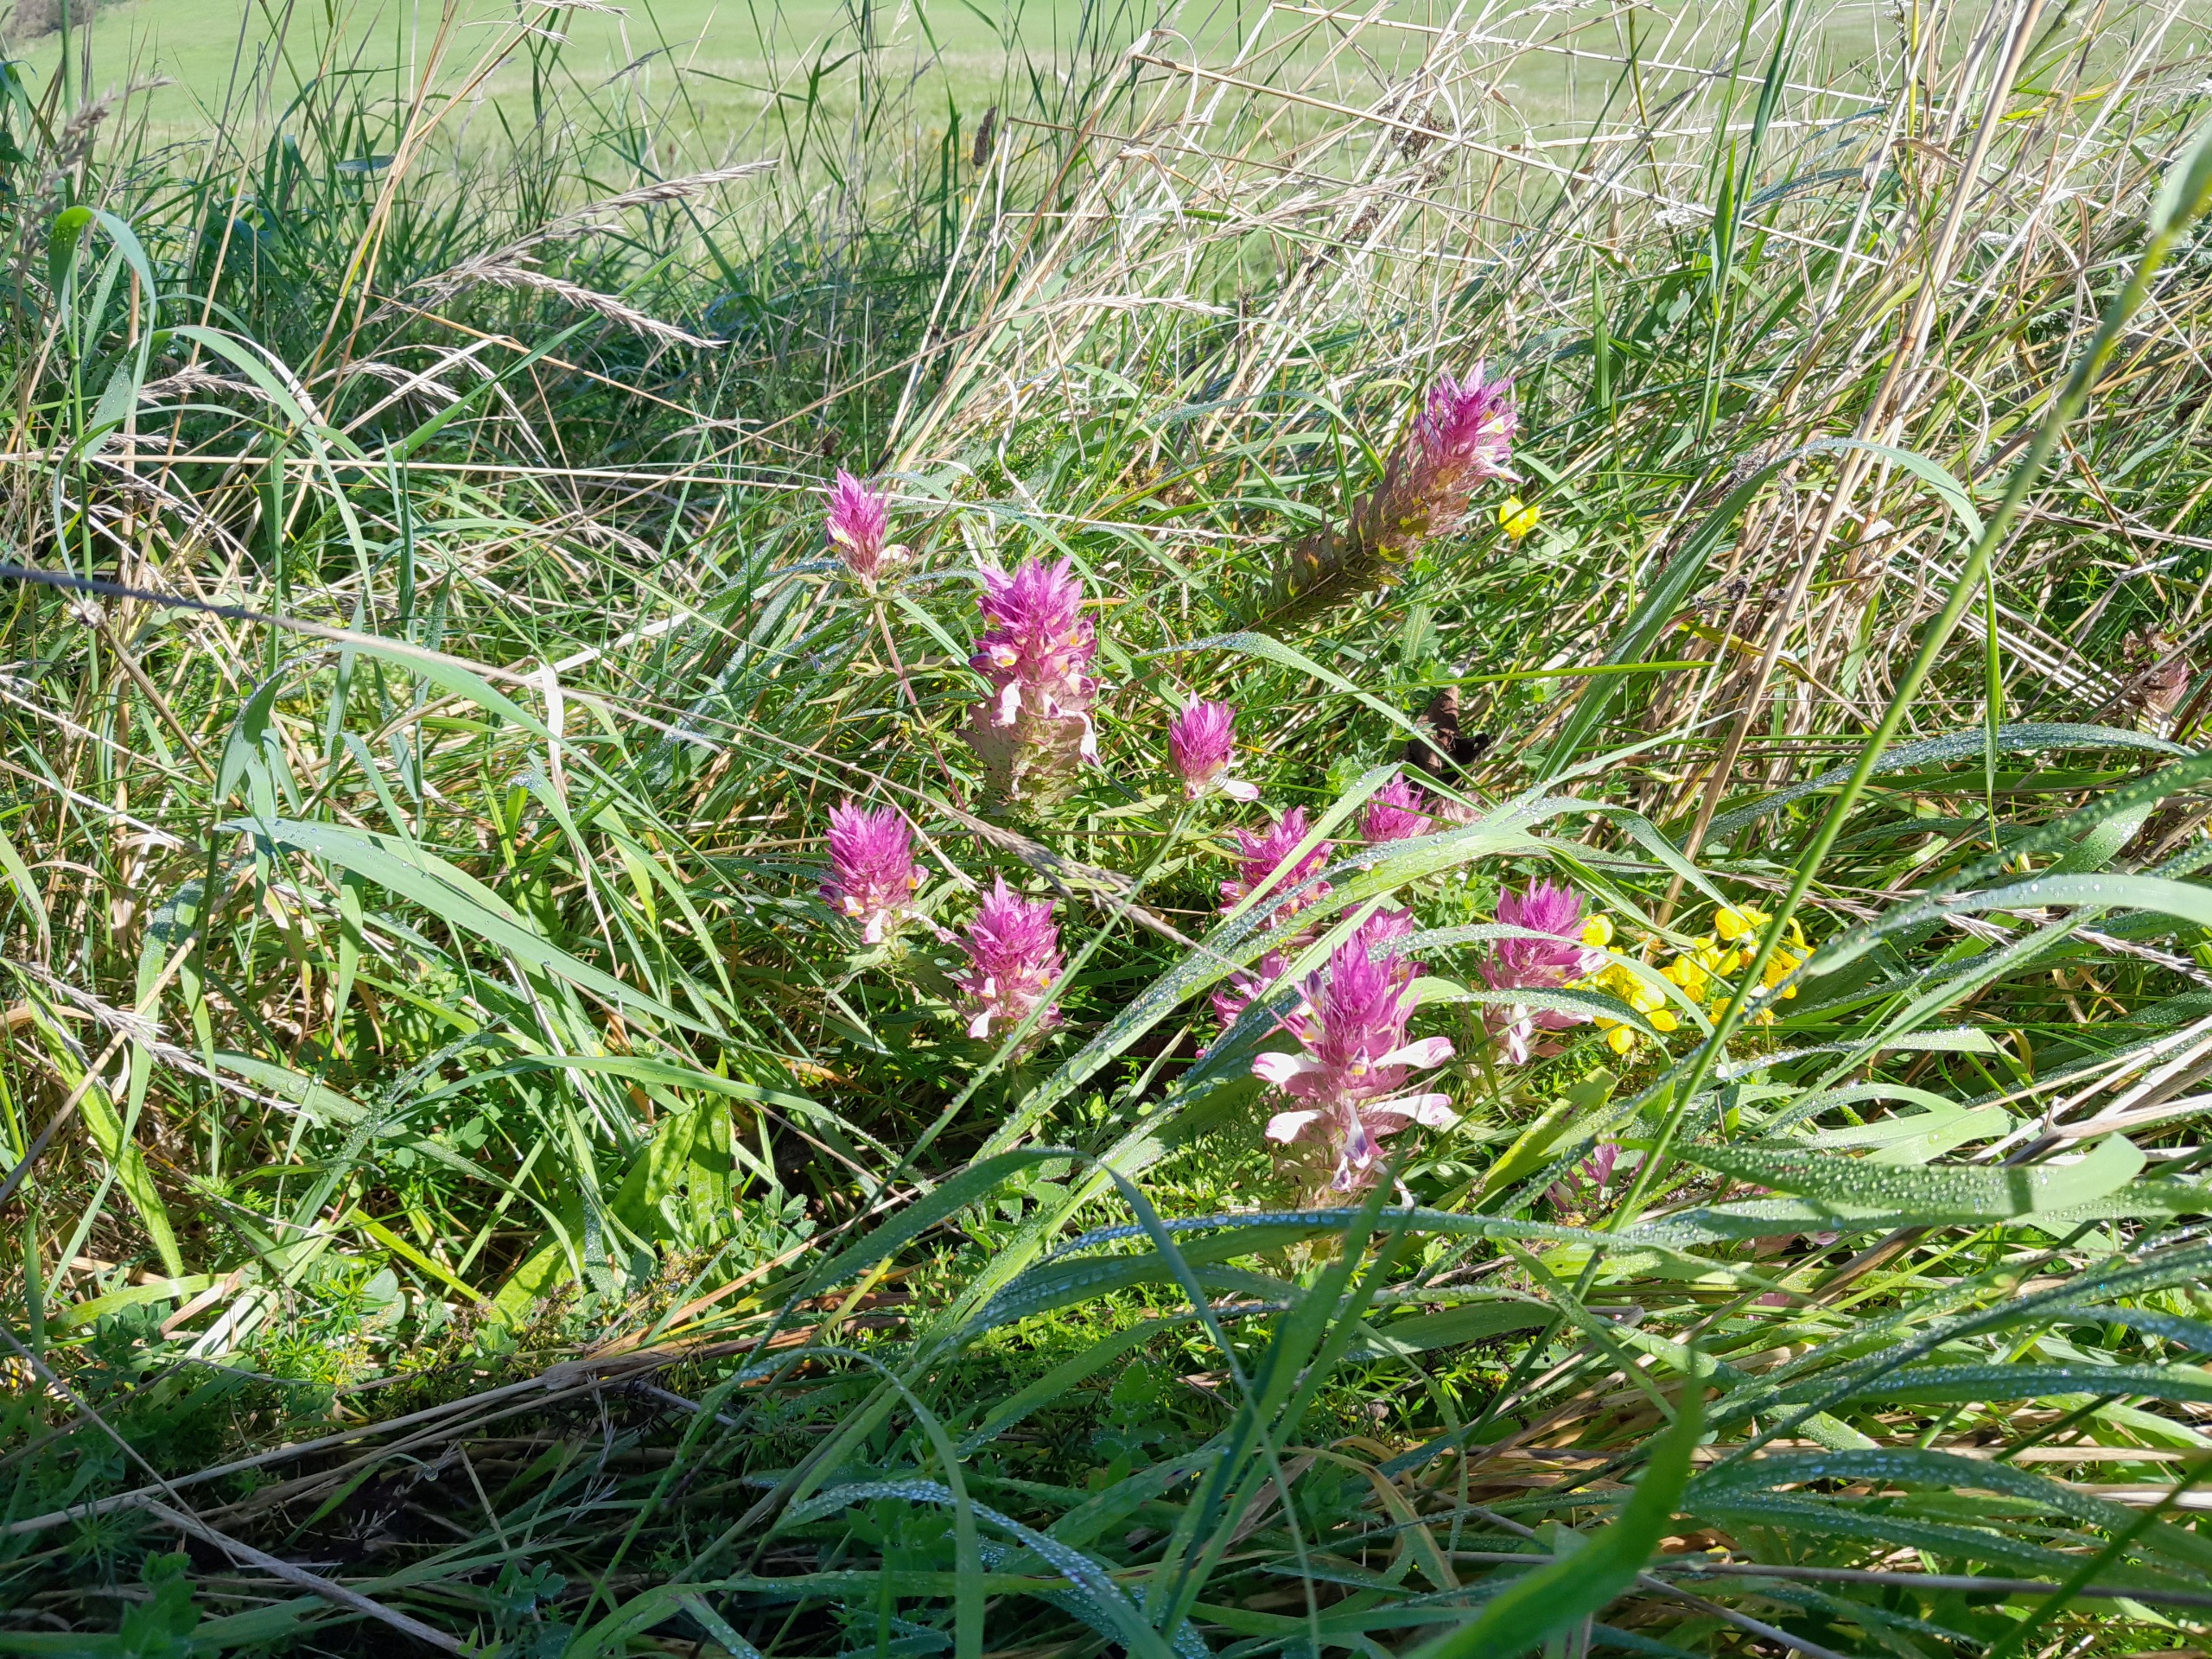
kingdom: Plantae
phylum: Tracheophyta
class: Magnoliopsida
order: Lamiales
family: Orobanchaceae
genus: Melampyrum
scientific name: Melampyrum arvense
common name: Ager-kohvede
